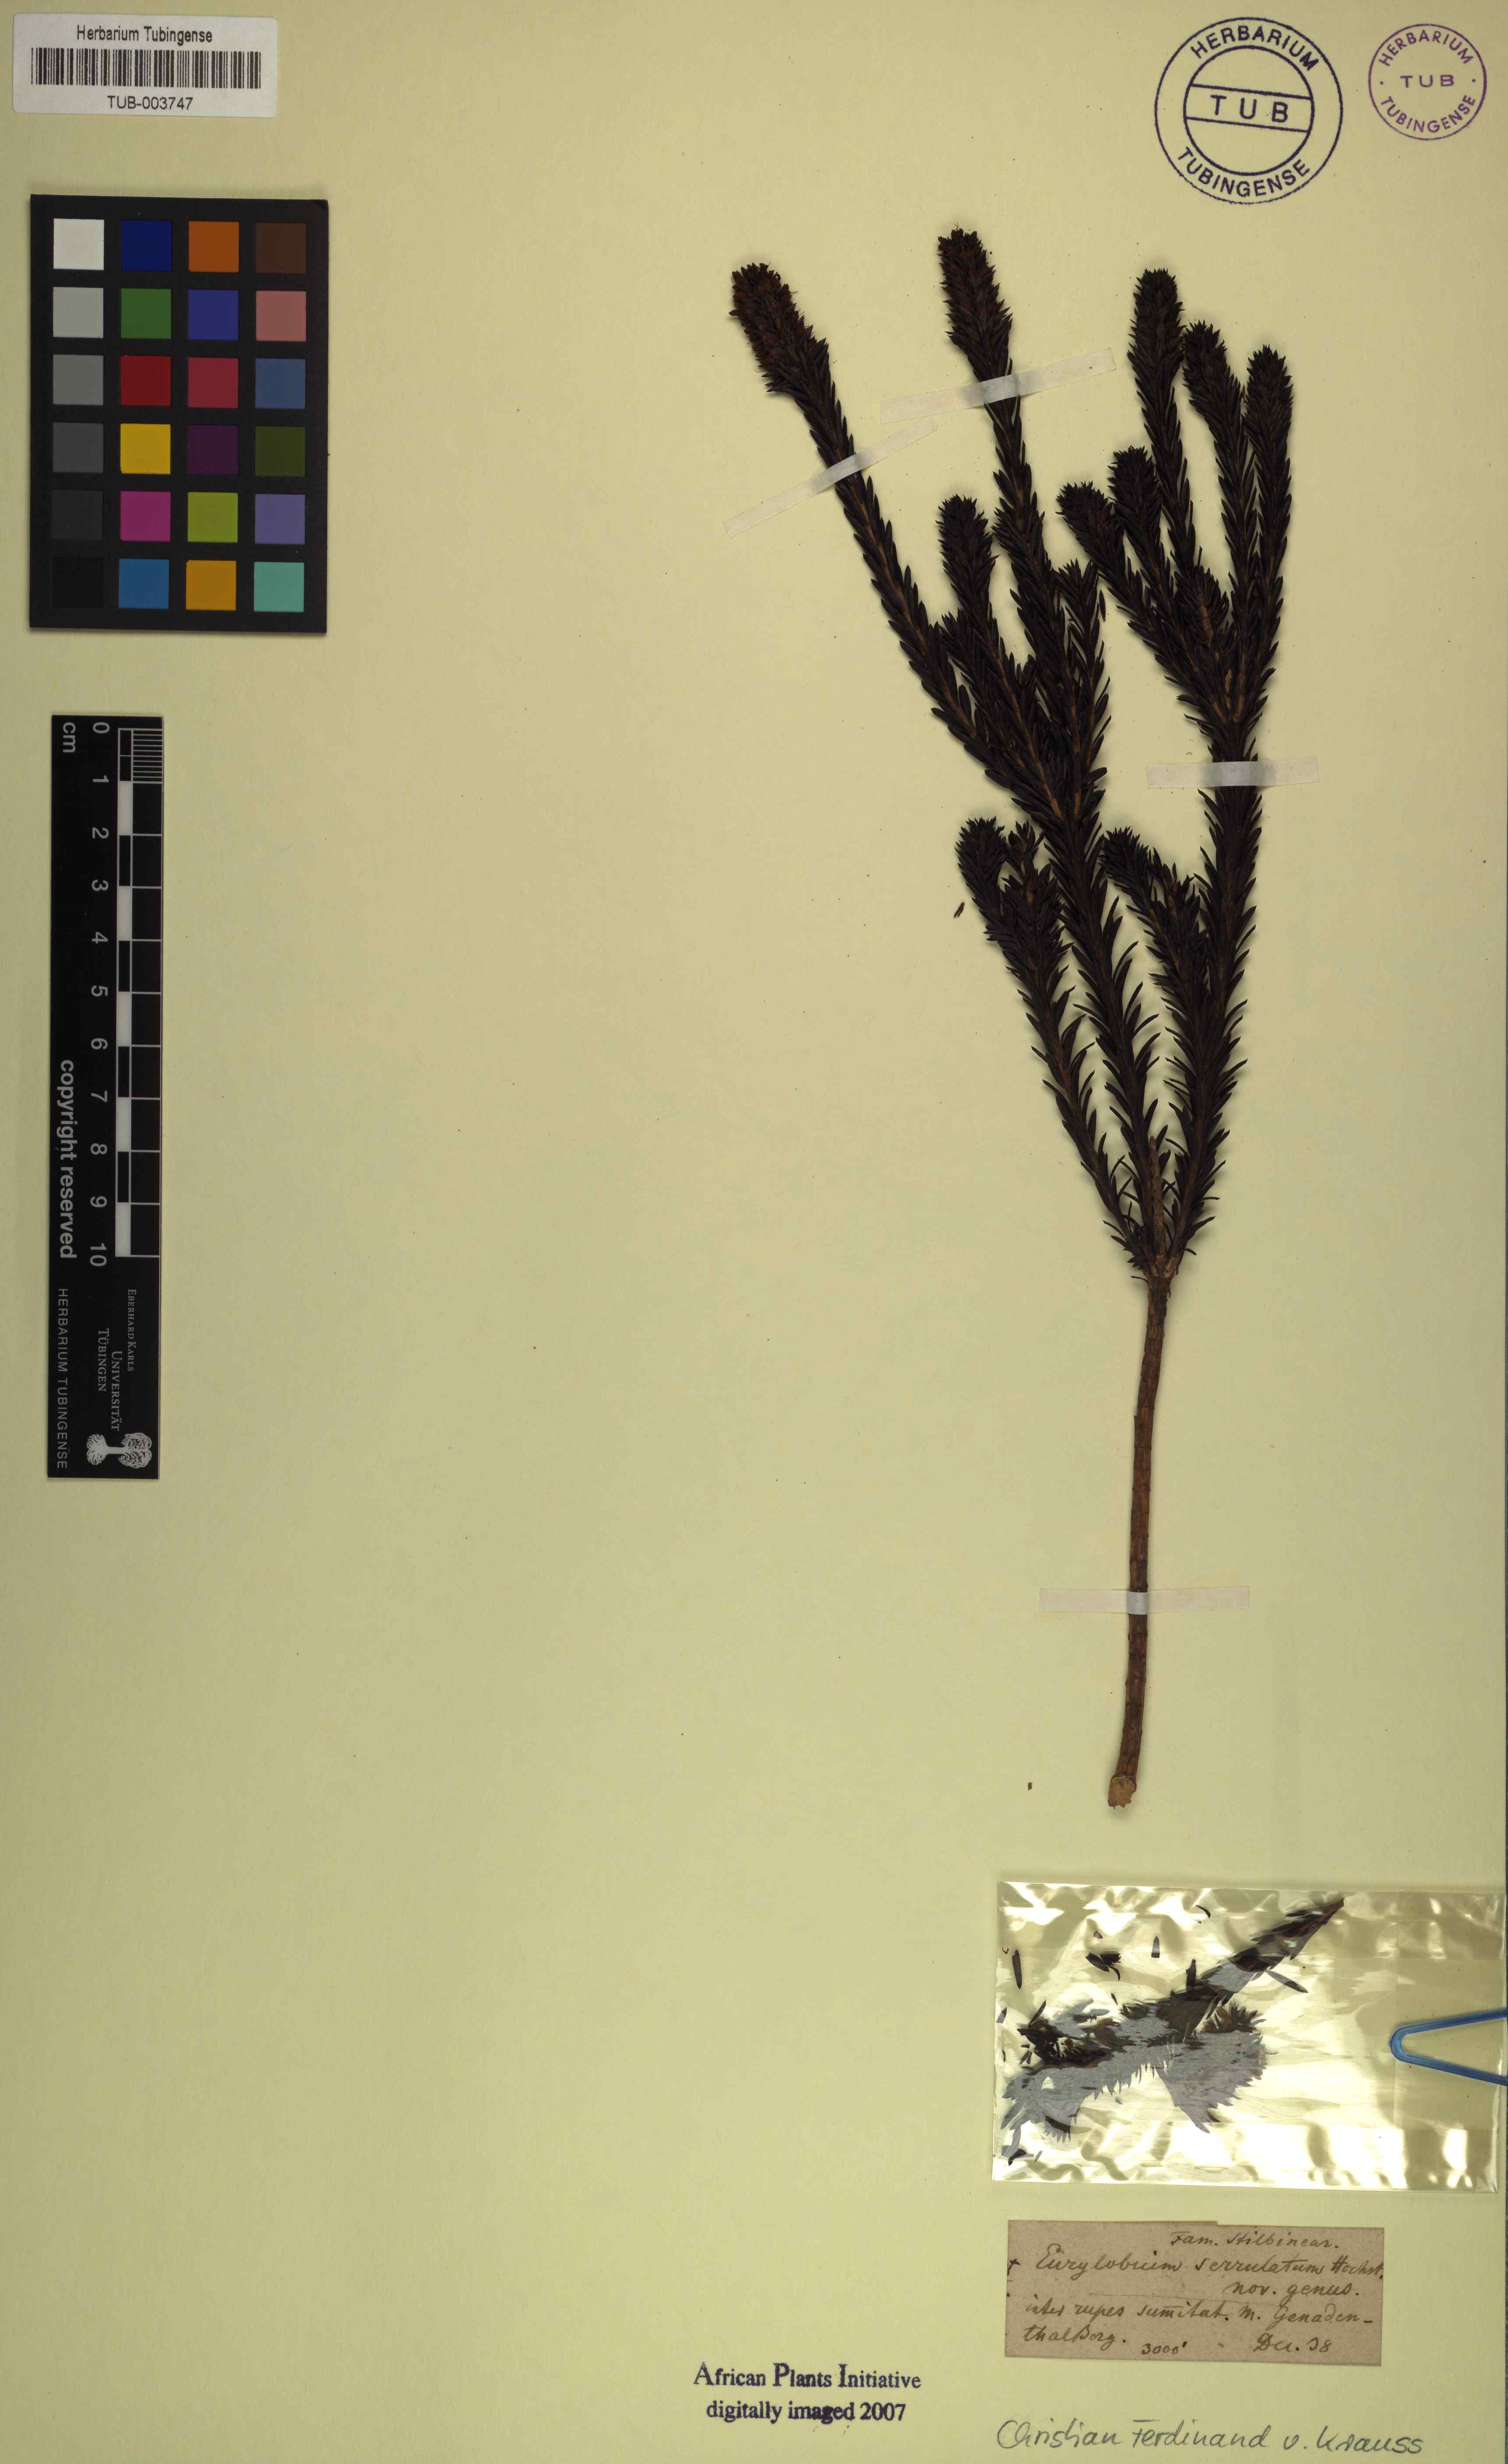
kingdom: Plantae
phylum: Tracheophyta
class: Magnoliopsida
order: Lamiales
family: Stilbaceae
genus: Stilbe
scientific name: Stilbe serrulata
